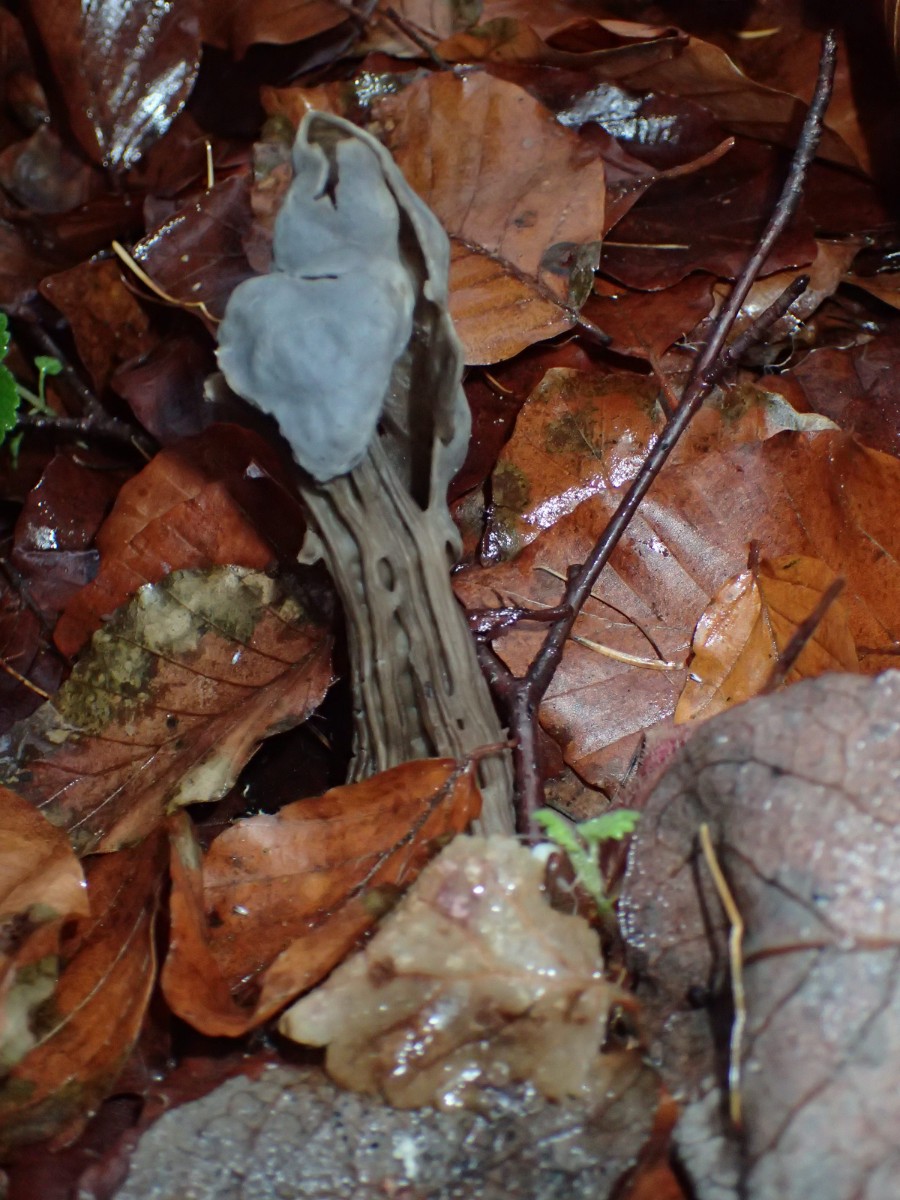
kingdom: Fungi
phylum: Ascomycota
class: Pezizomycetes
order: Pezizales
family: Helvellaceae
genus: Helvella
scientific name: Helvella lacunosa
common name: grubet foldhat
